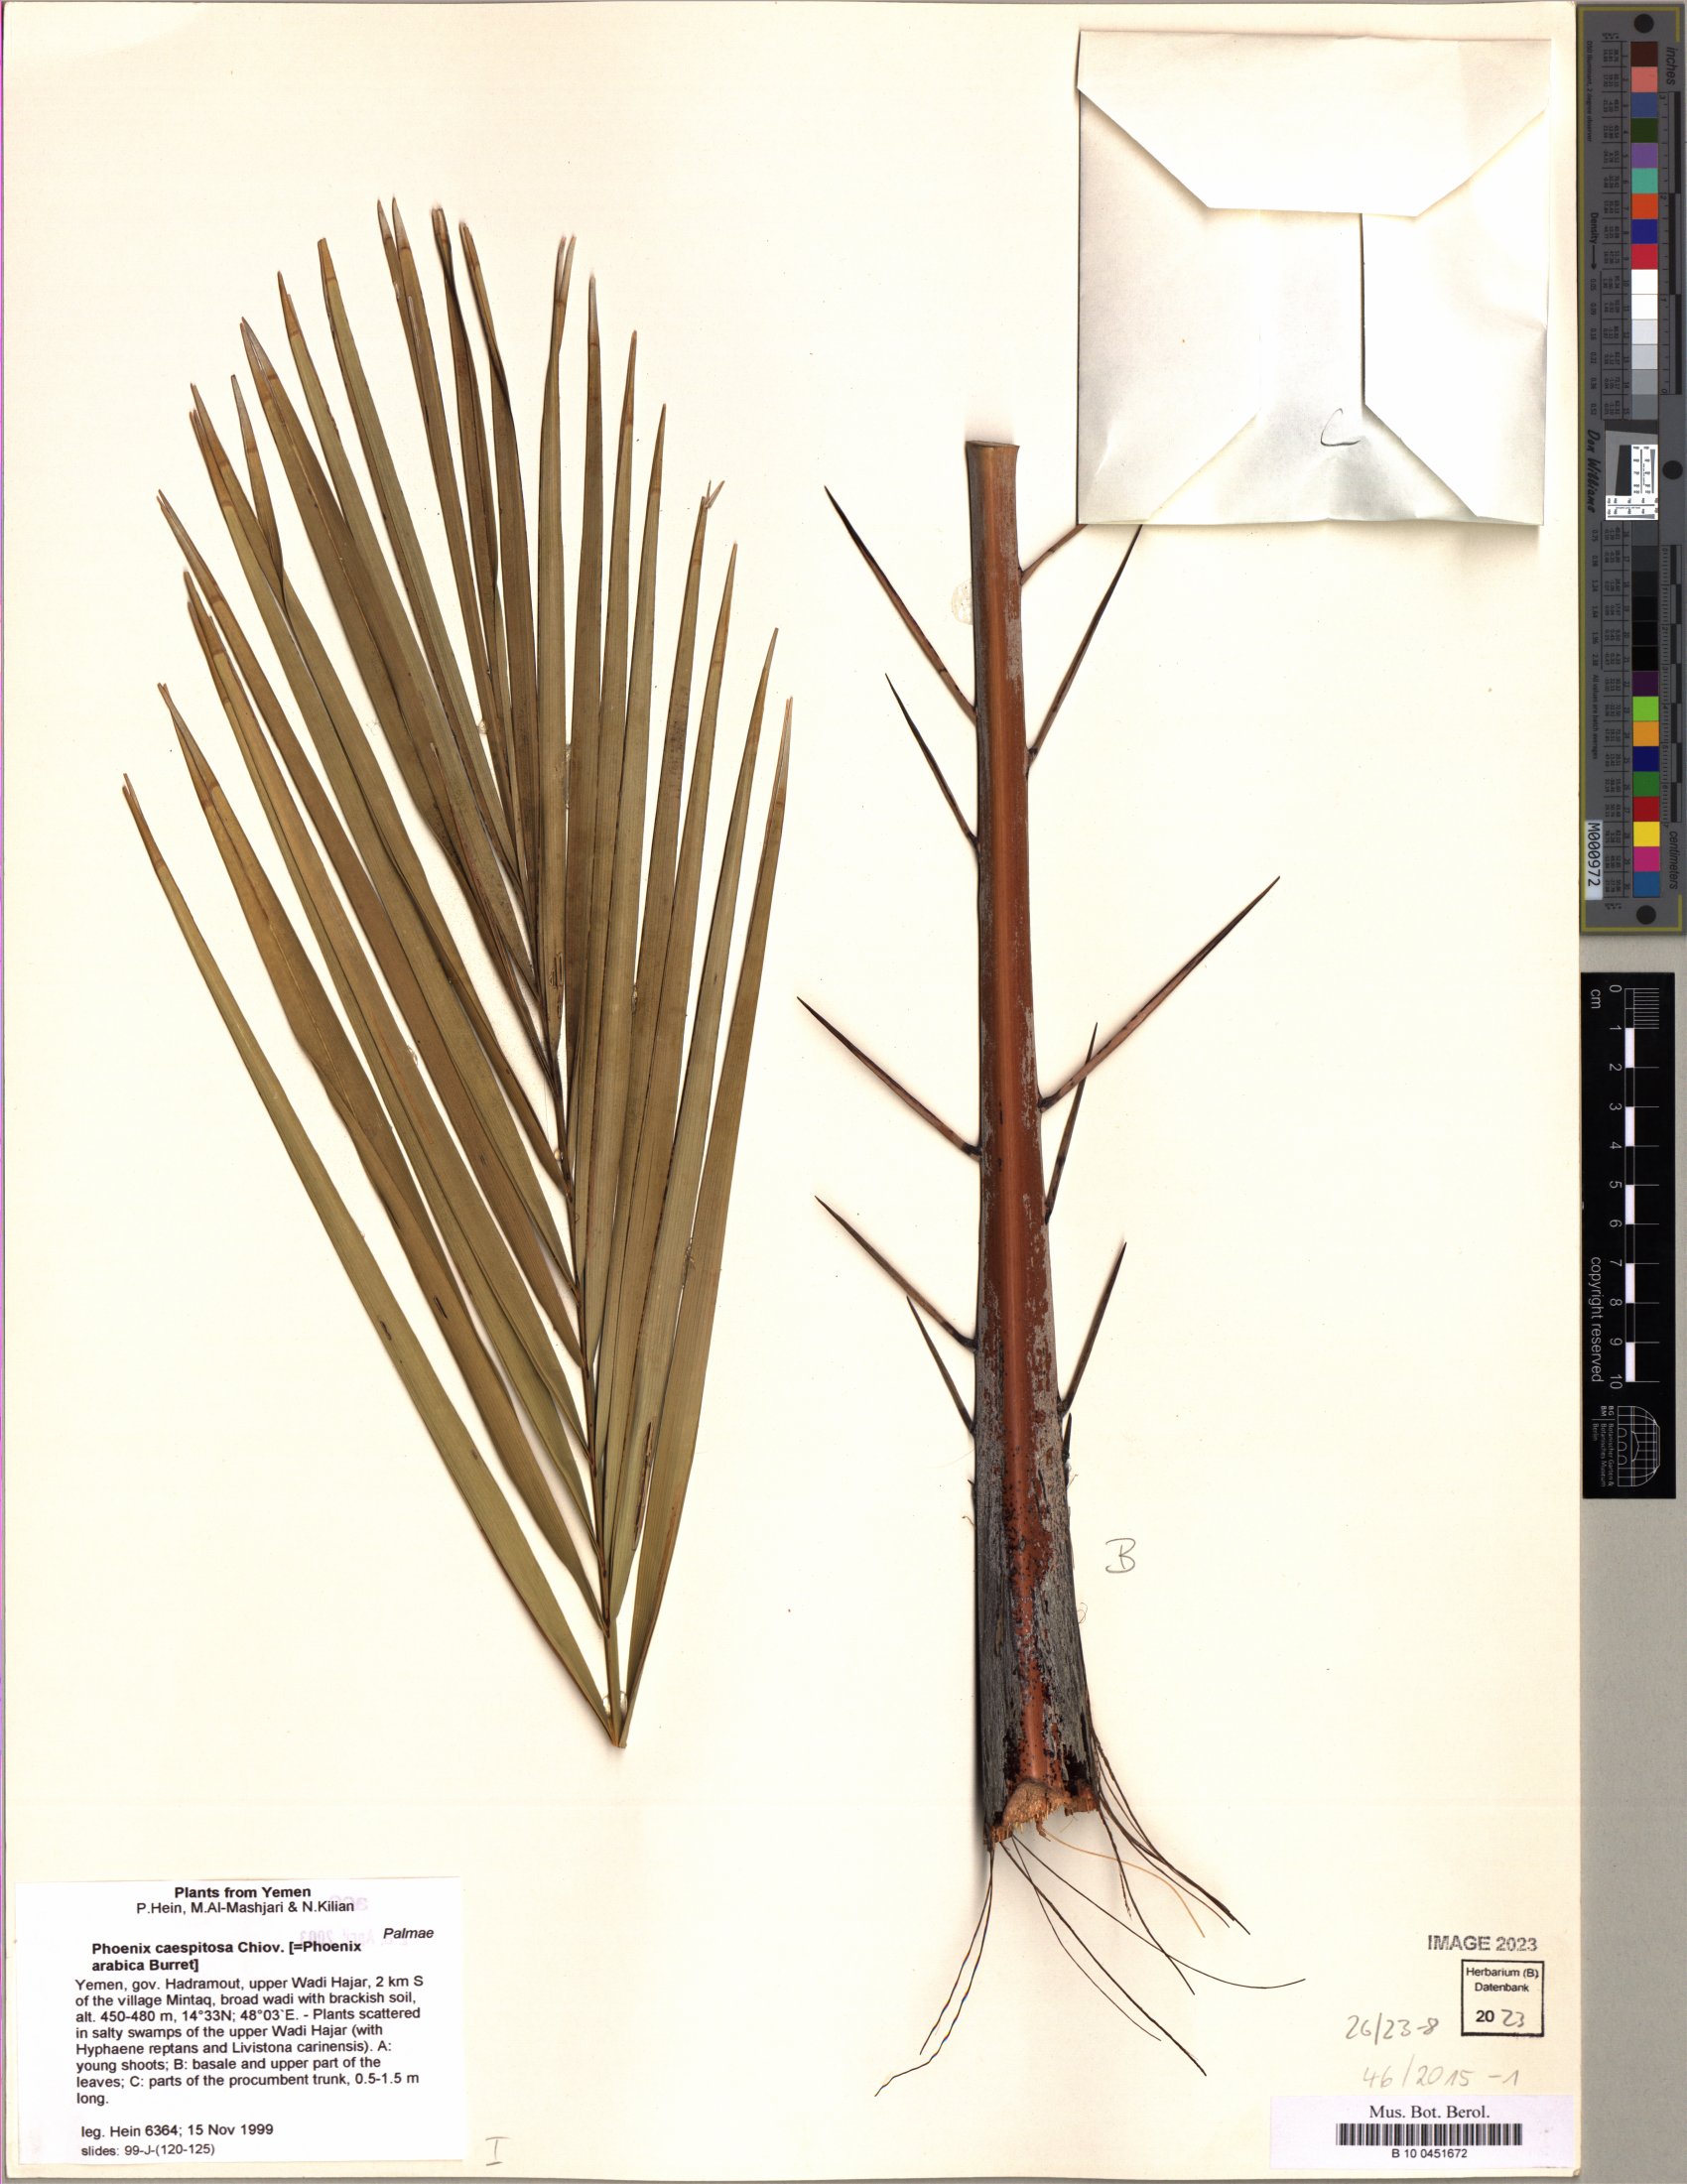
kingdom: Plantae
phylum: Tracheophyta
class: Liliopsida
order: Arecales
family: Arecaceae
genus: Phoenix
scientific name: Phoenix caespitosa
